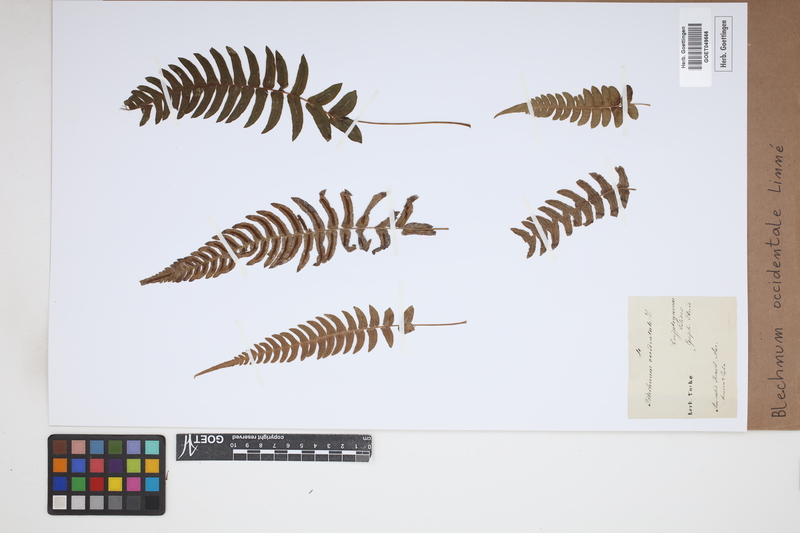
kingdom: Plantae
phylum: Tracheophyta
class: Polypodiopsida
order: Polypodiales
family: Blechnaceae
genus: Blechnum
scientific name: Blechnum occidentale
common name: Hammock fern
